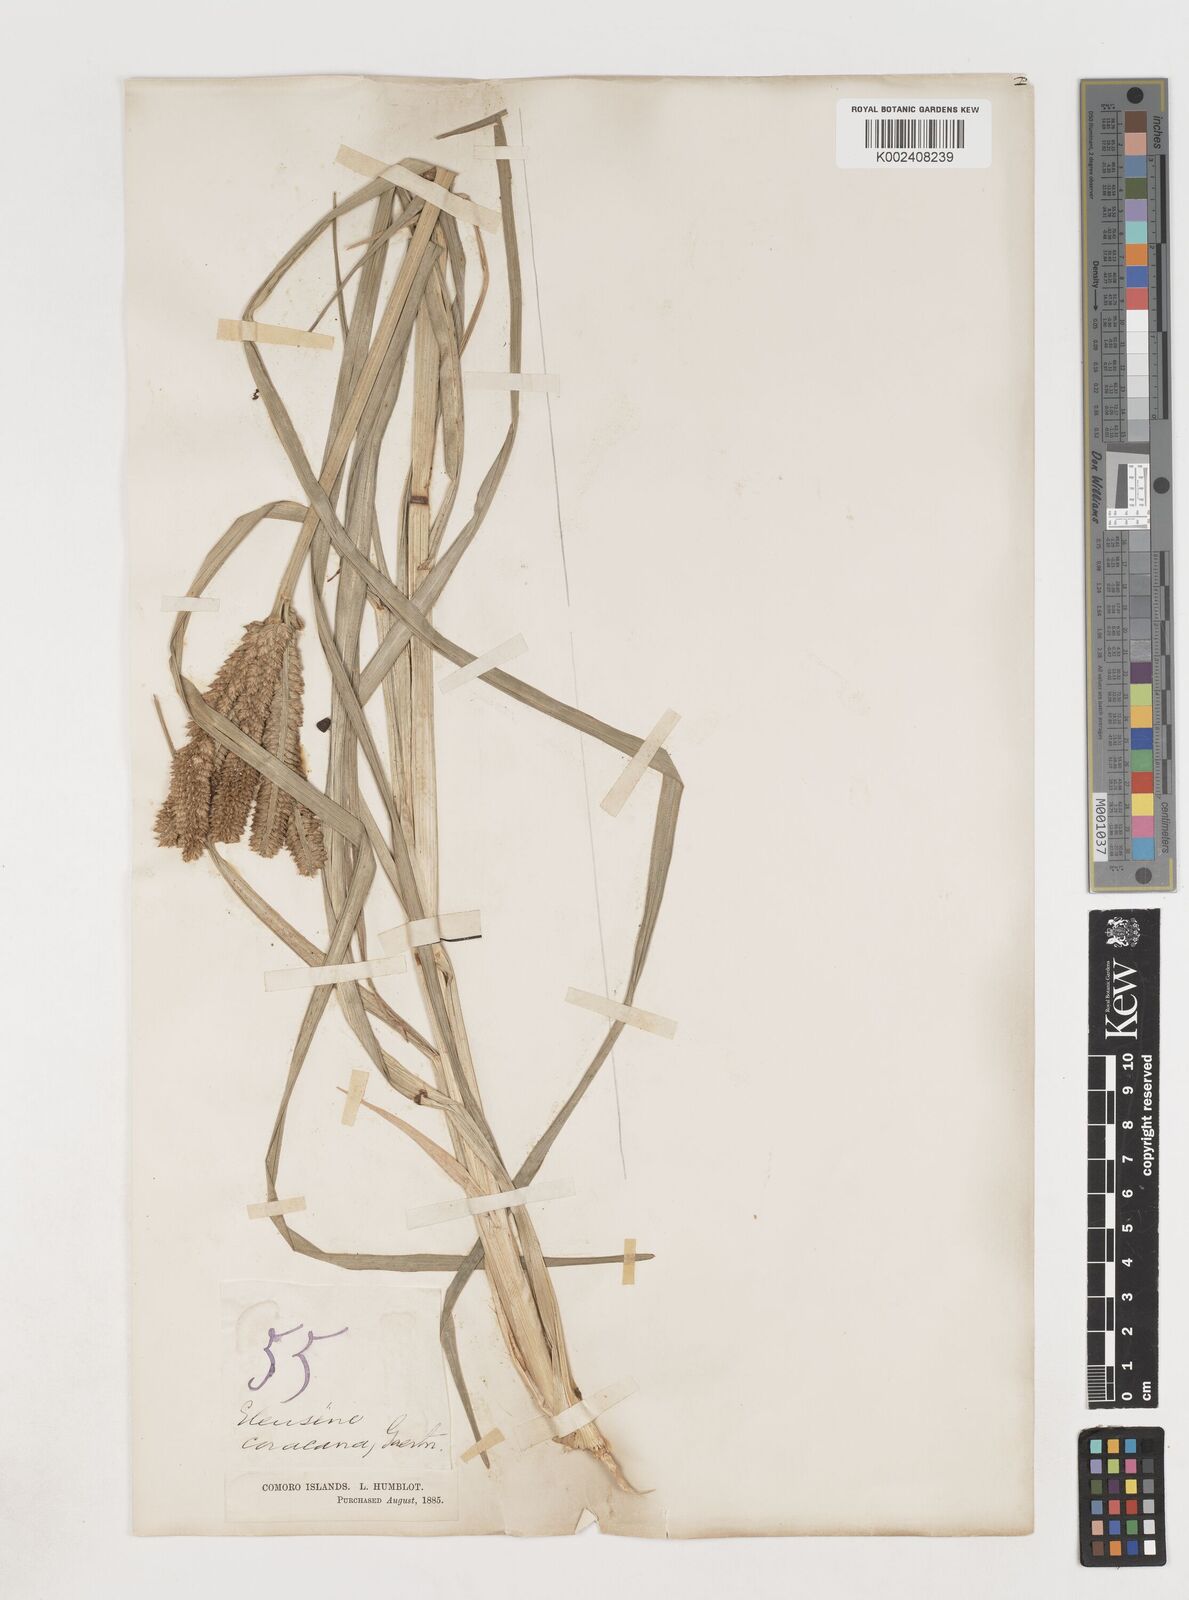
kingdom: Plantae
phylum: Tracheophyta
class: Liliopsida
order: Poales
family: Poaceae
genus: Eleusine
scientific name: Eleusine coracana
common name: Finger millet
